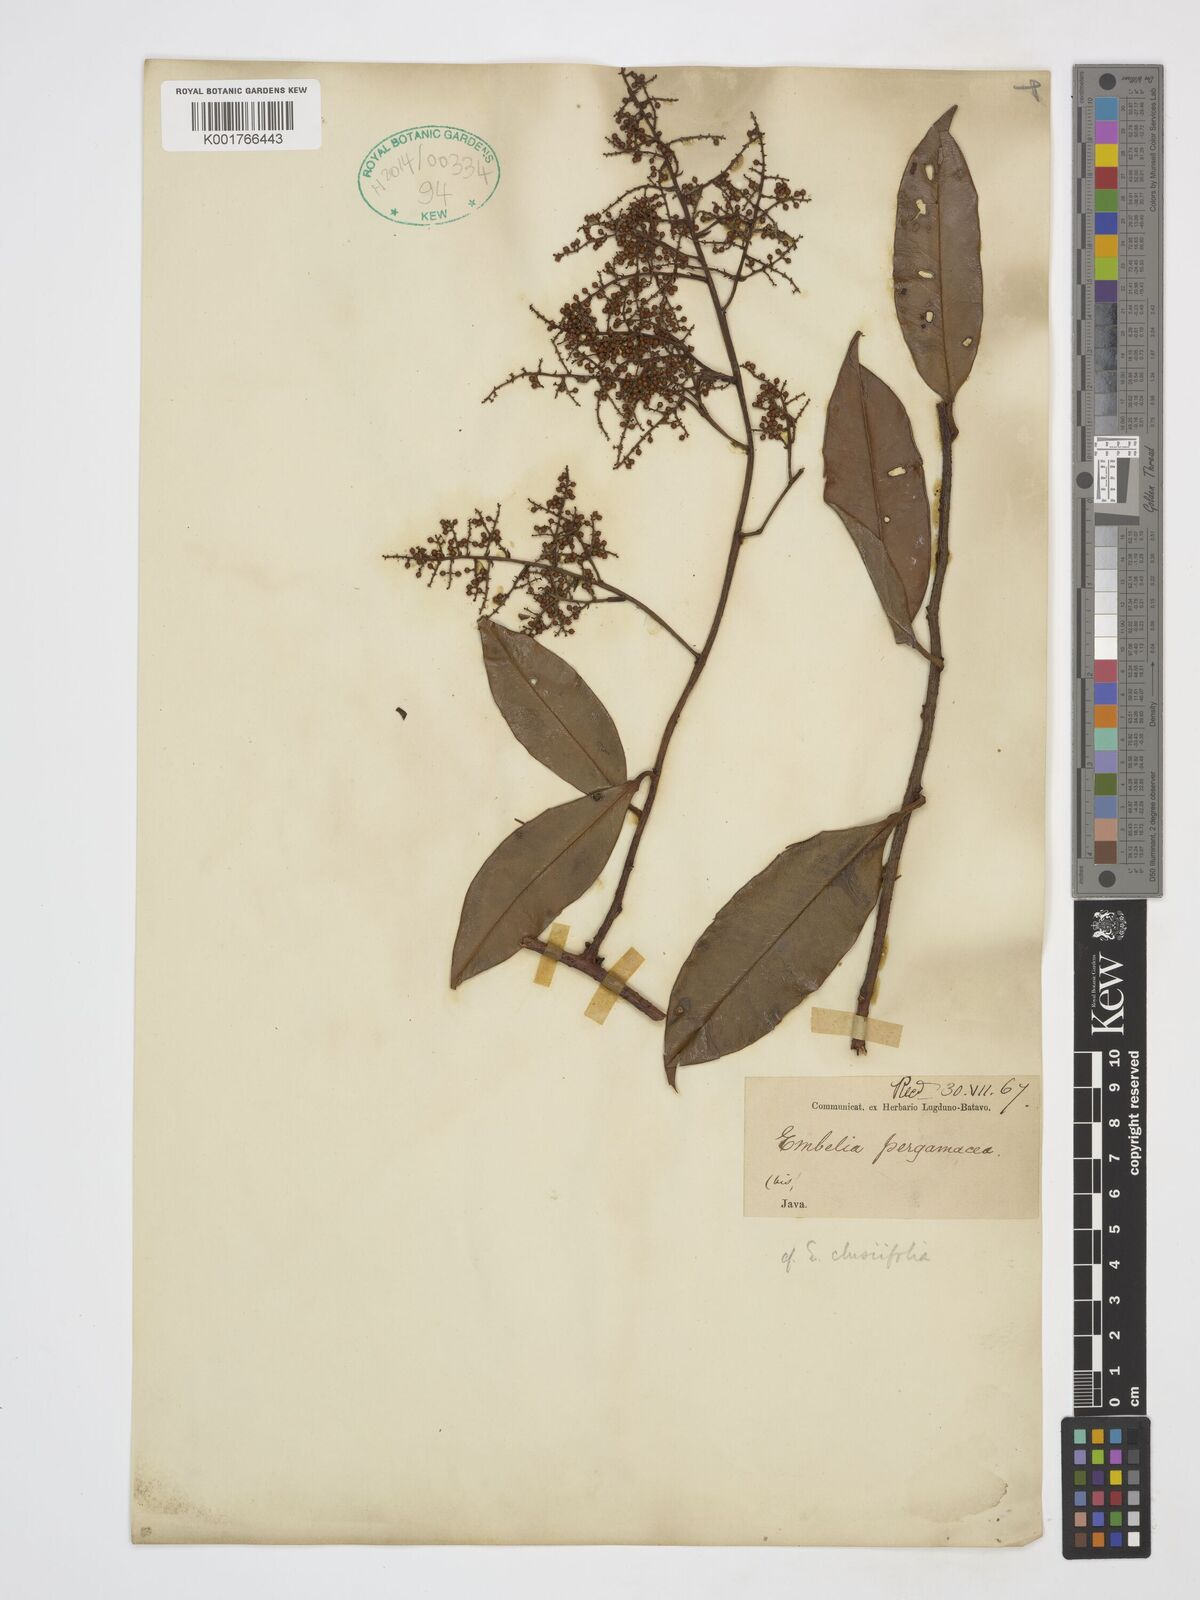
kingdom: Plantae
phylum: Tracheophyta
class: Magnoliopsida
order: Ericales
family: Primulaceae
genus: Embelia
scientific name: Embelia clusiifolia
